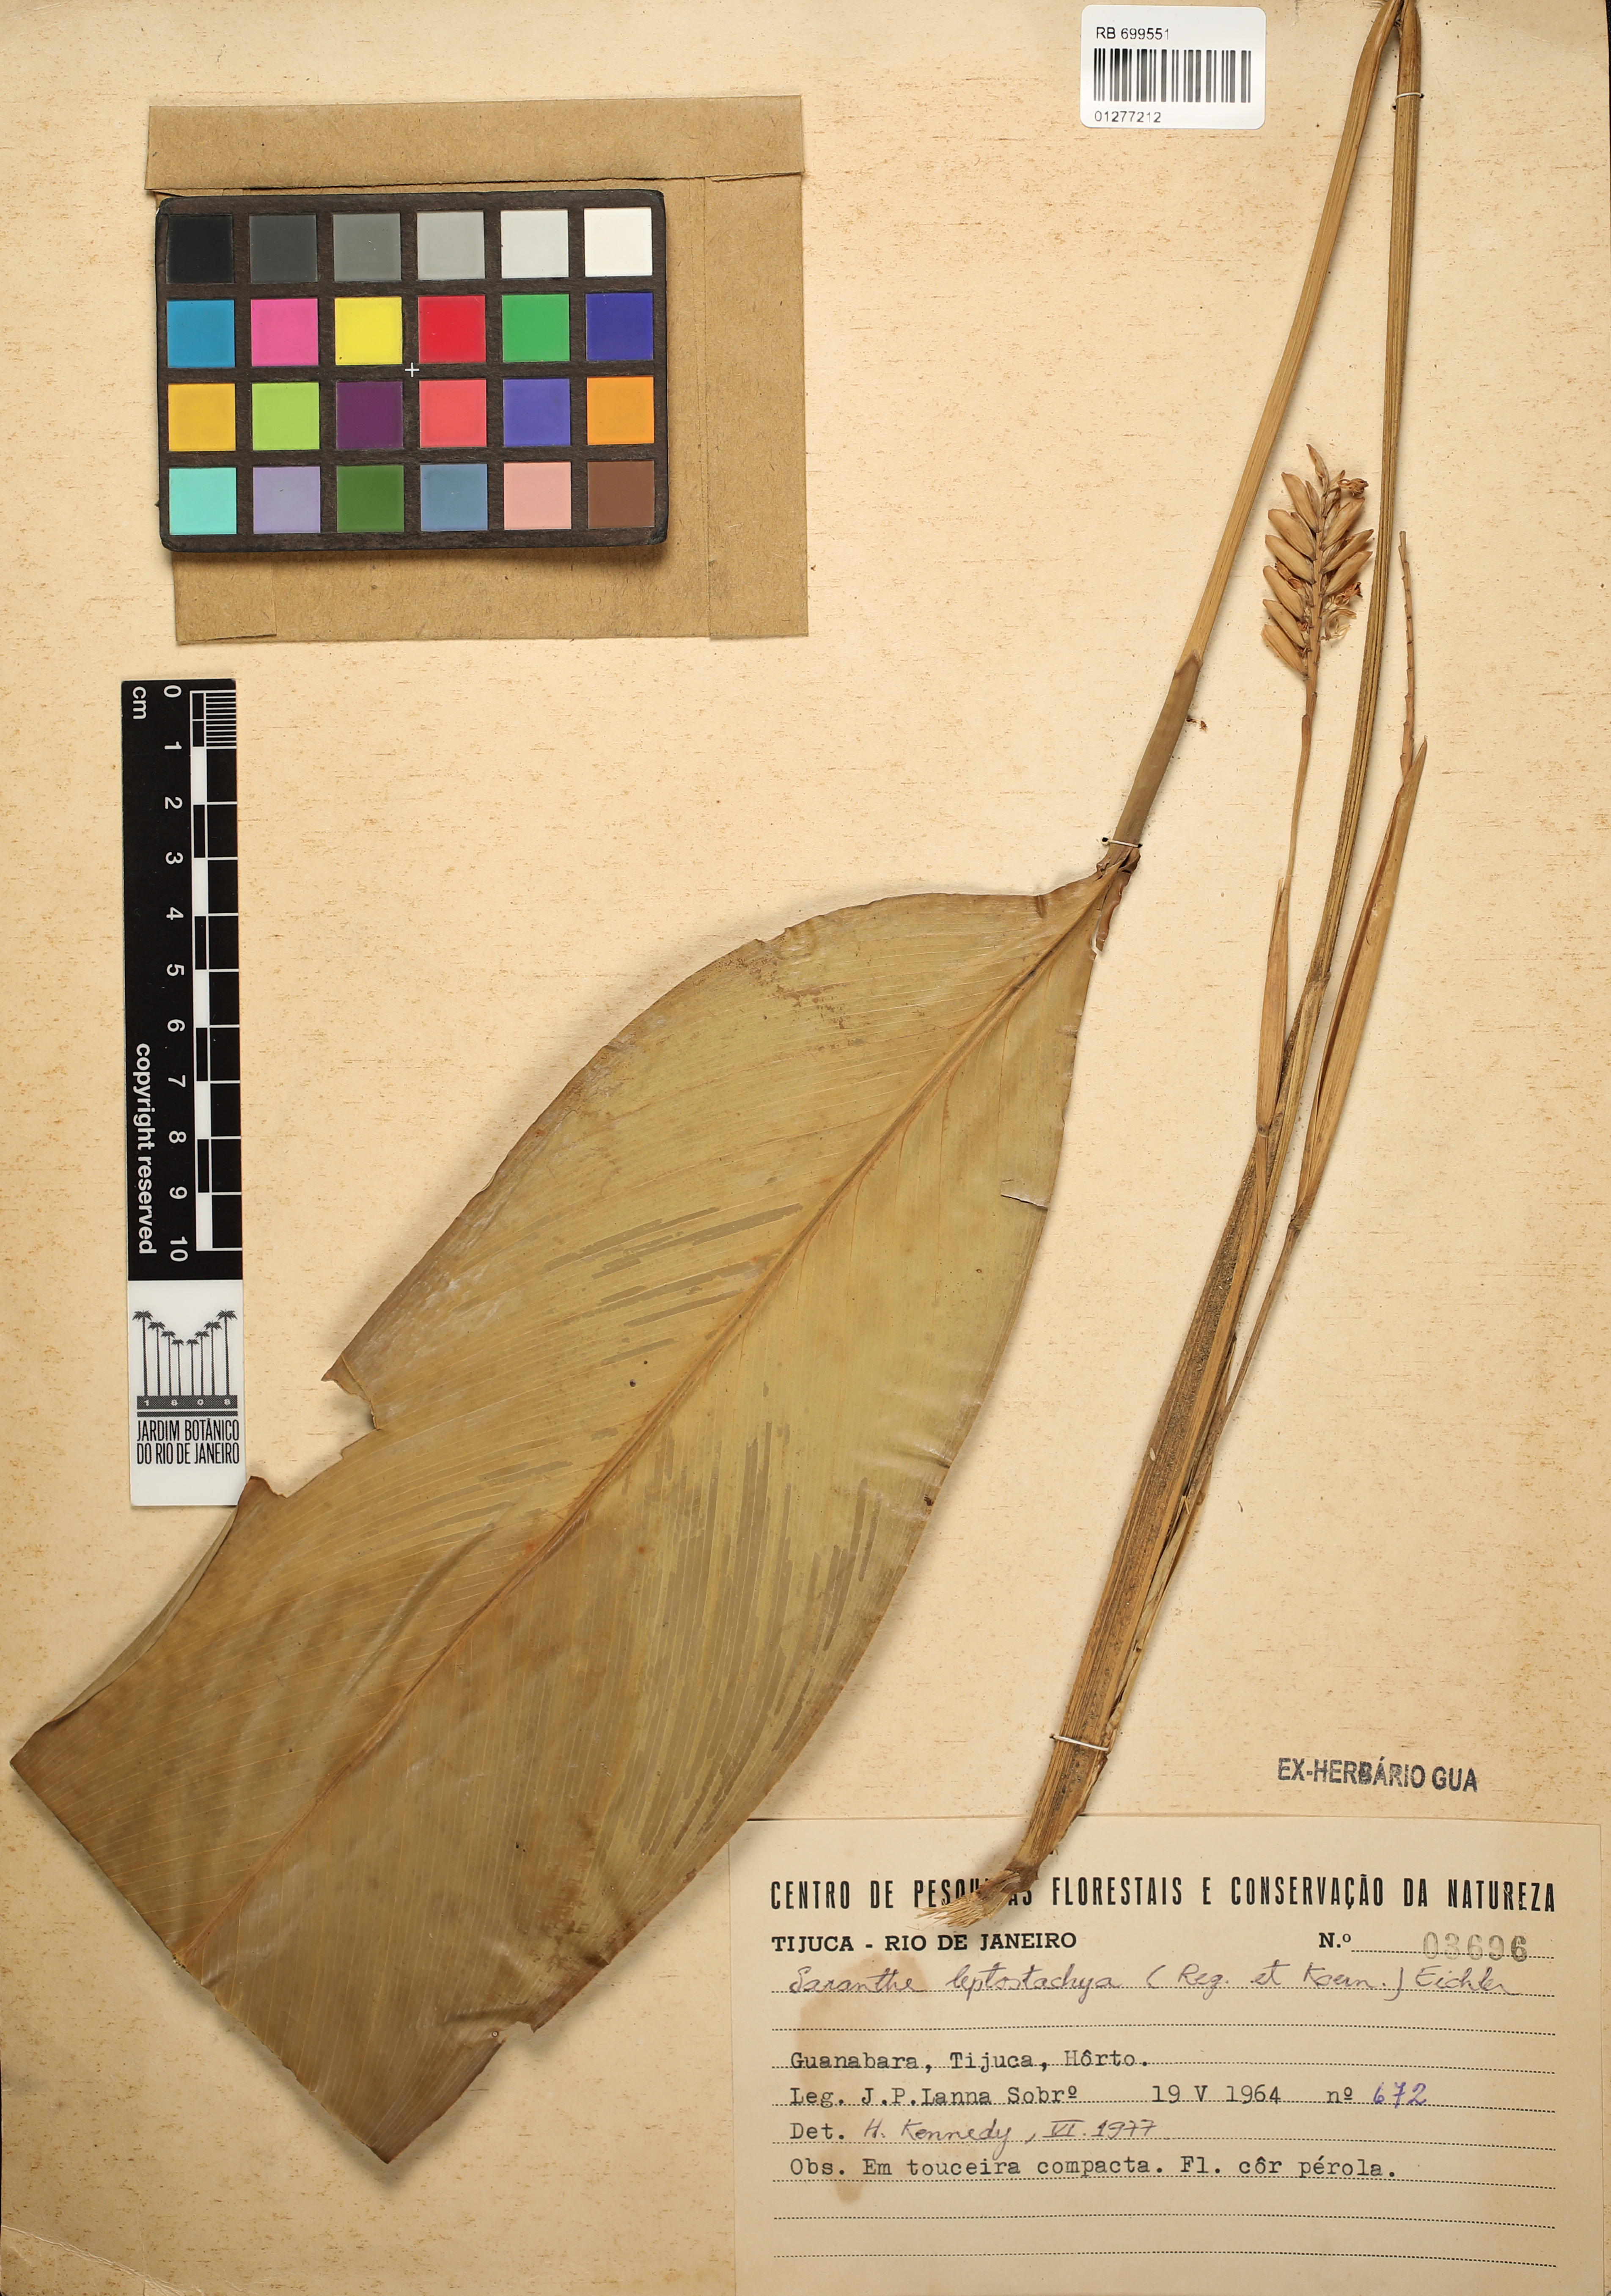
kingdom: Plantae
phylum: Tracheophyta
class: Liliopsida
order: Zingiberales
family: Marantaceae
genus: Saranthe
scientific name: Saranthe leptostachya
